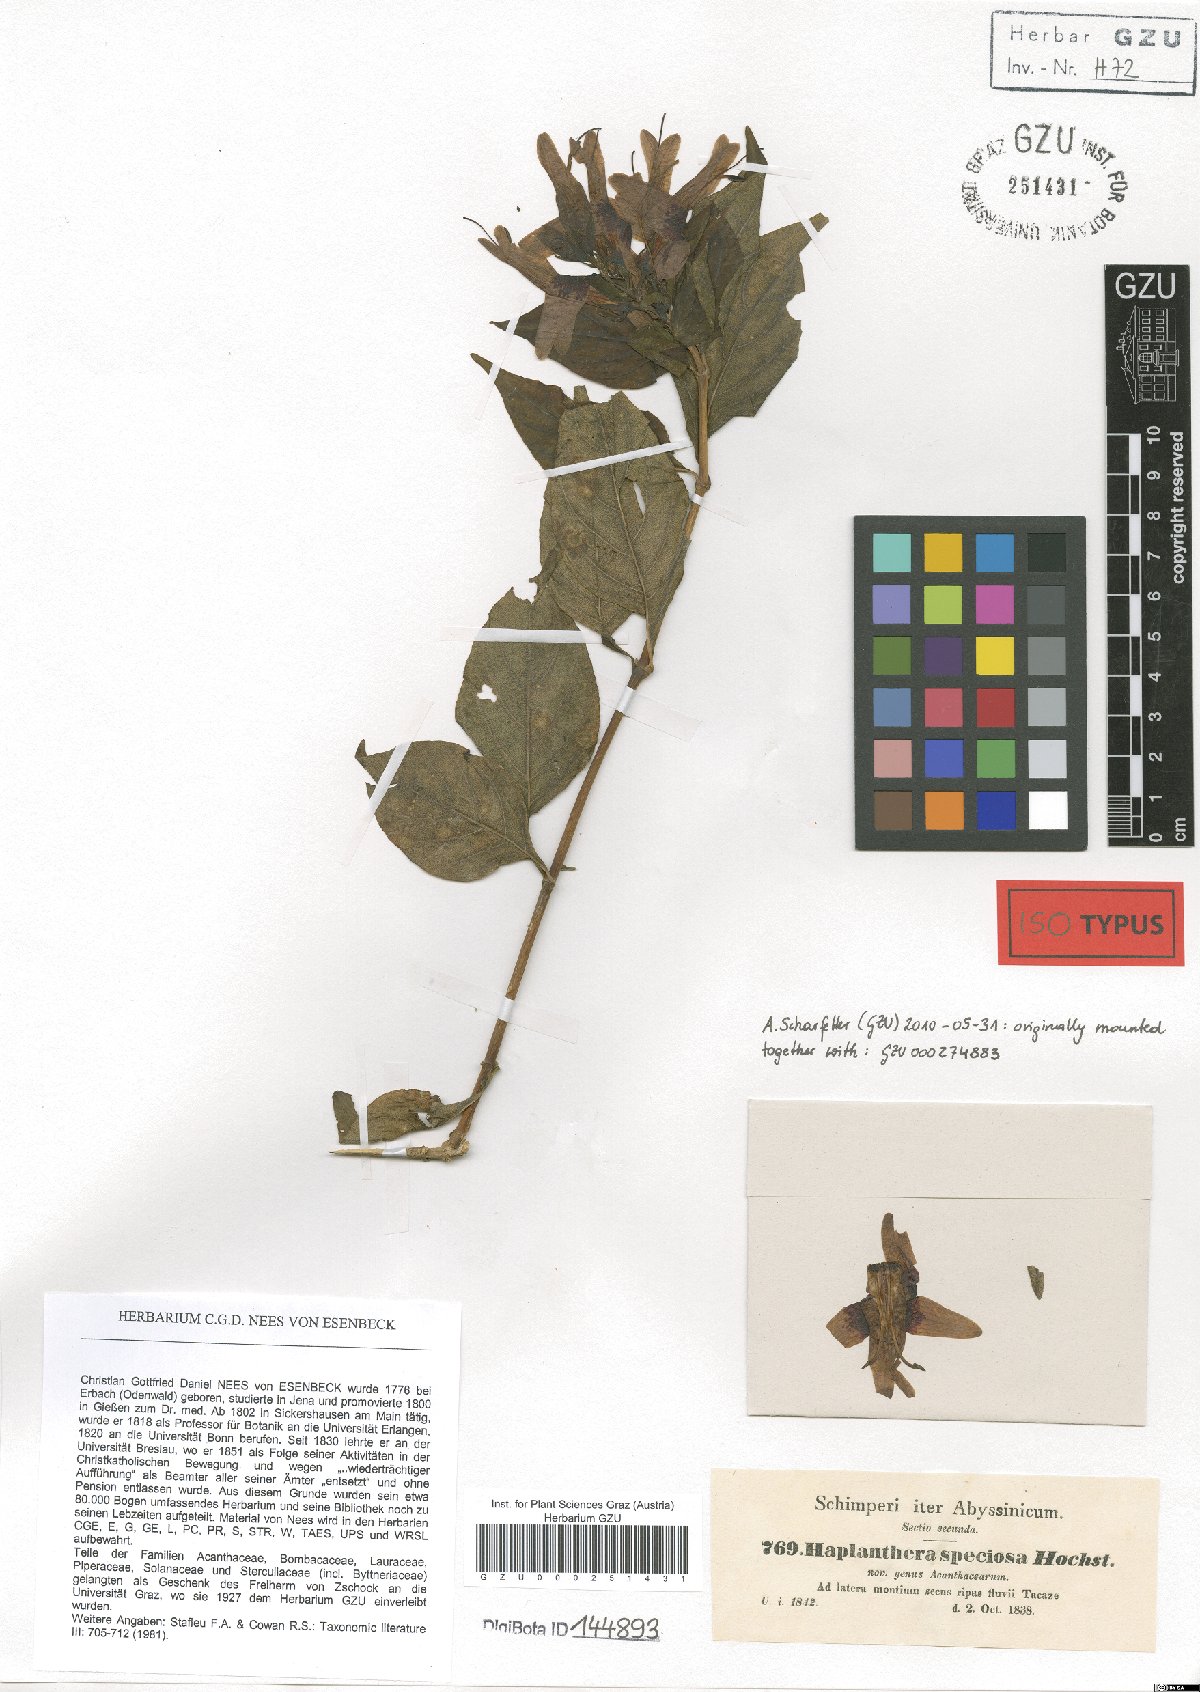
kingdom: Plantae
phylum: Tracheophyta
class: Magnoliopsida
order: Lamiales
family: Acanthaceae
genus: Ruttya
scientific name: Ruttya speciosa
